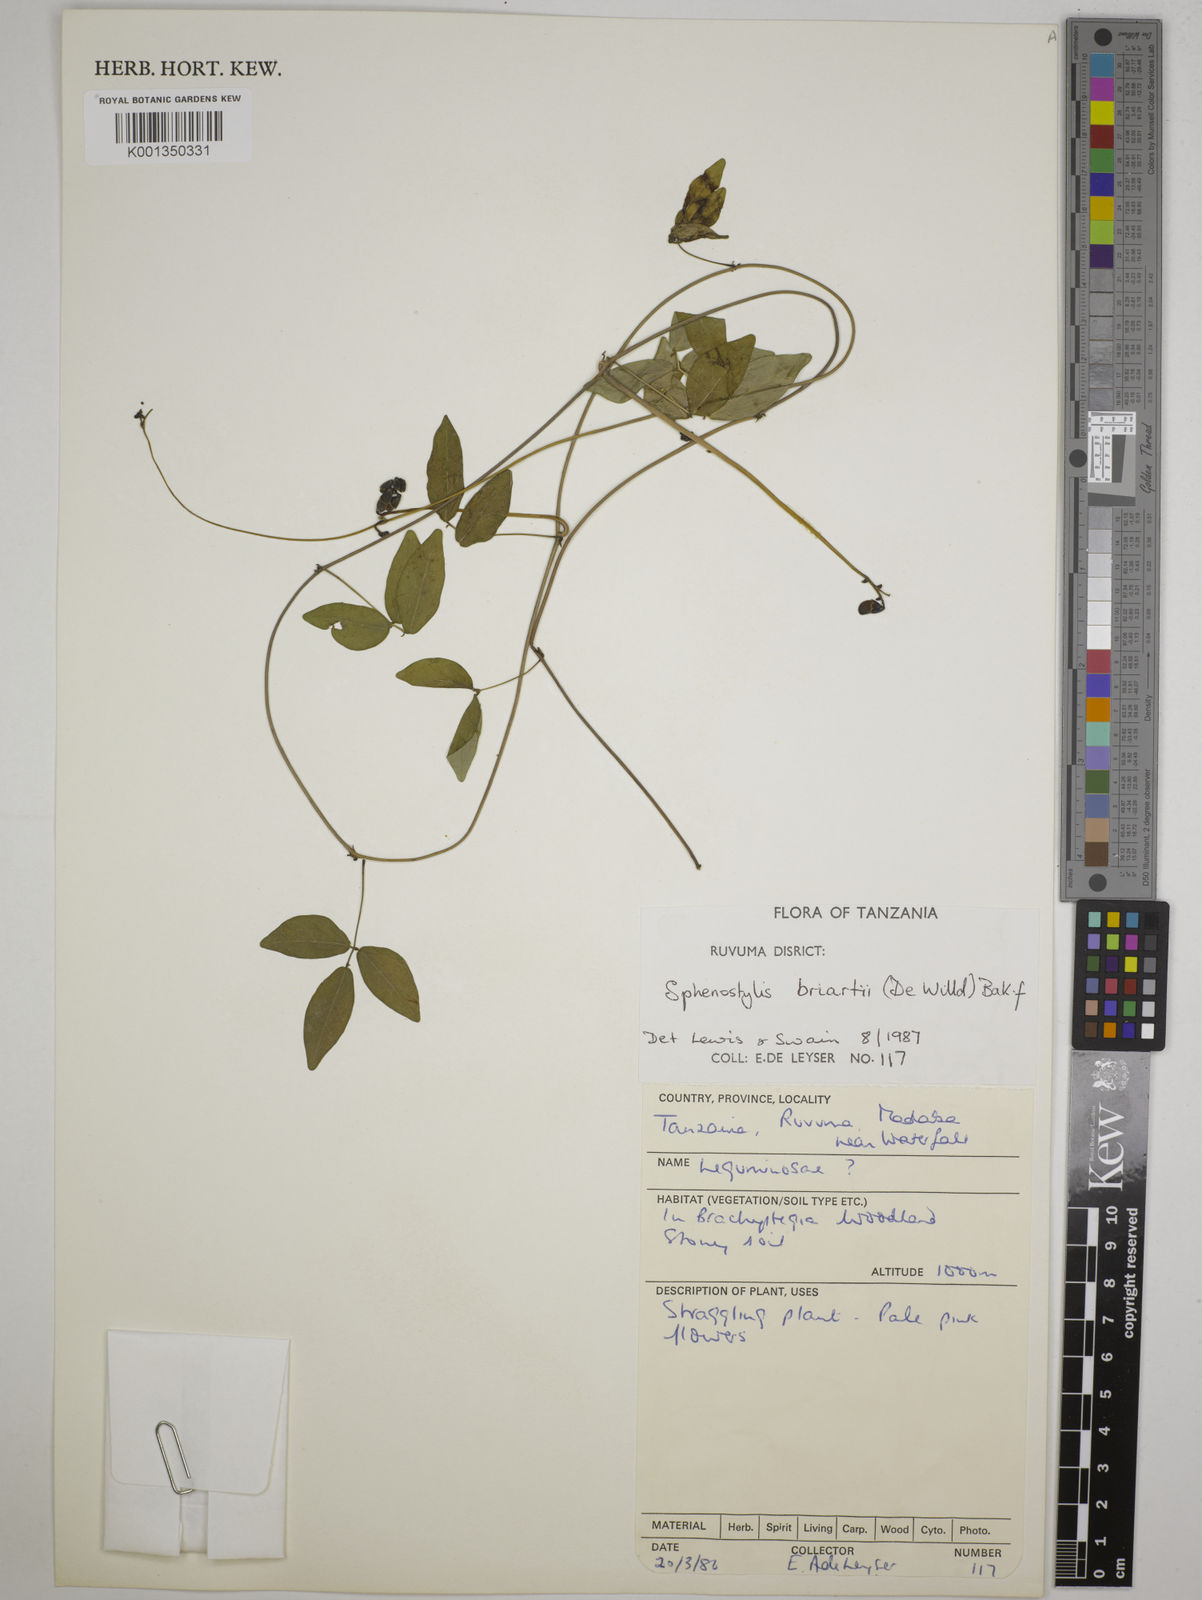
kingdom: Plantae
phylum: Tracheophyta
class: Magnoliopsida
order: Fabales
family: Fabaceae
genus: Sphenostylis
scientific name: Sphenostylis briartii
